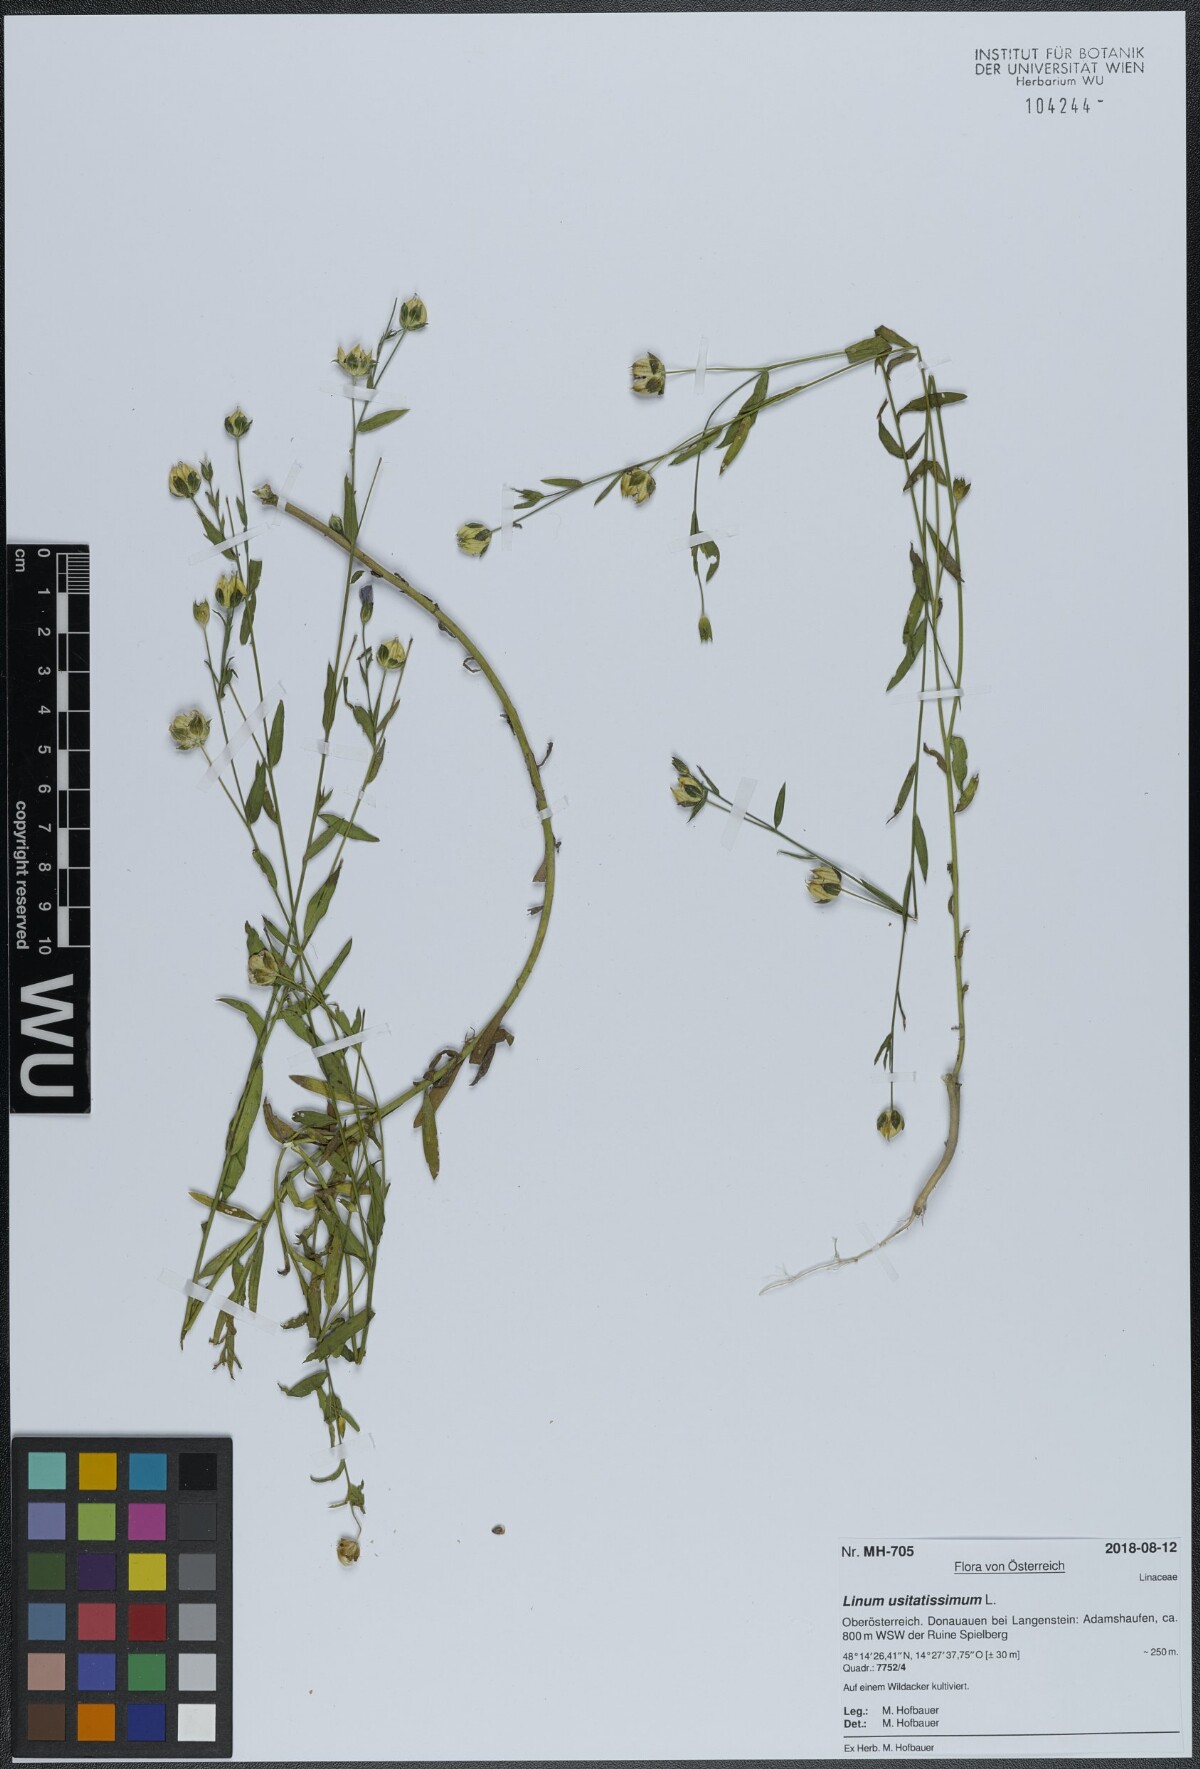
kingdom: Plantae
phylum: Tracheophyta
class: Magnoliopsida
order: Malpighiales
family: Linaceae
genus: Linum
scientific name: Linum usitatissimum
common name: Flax
